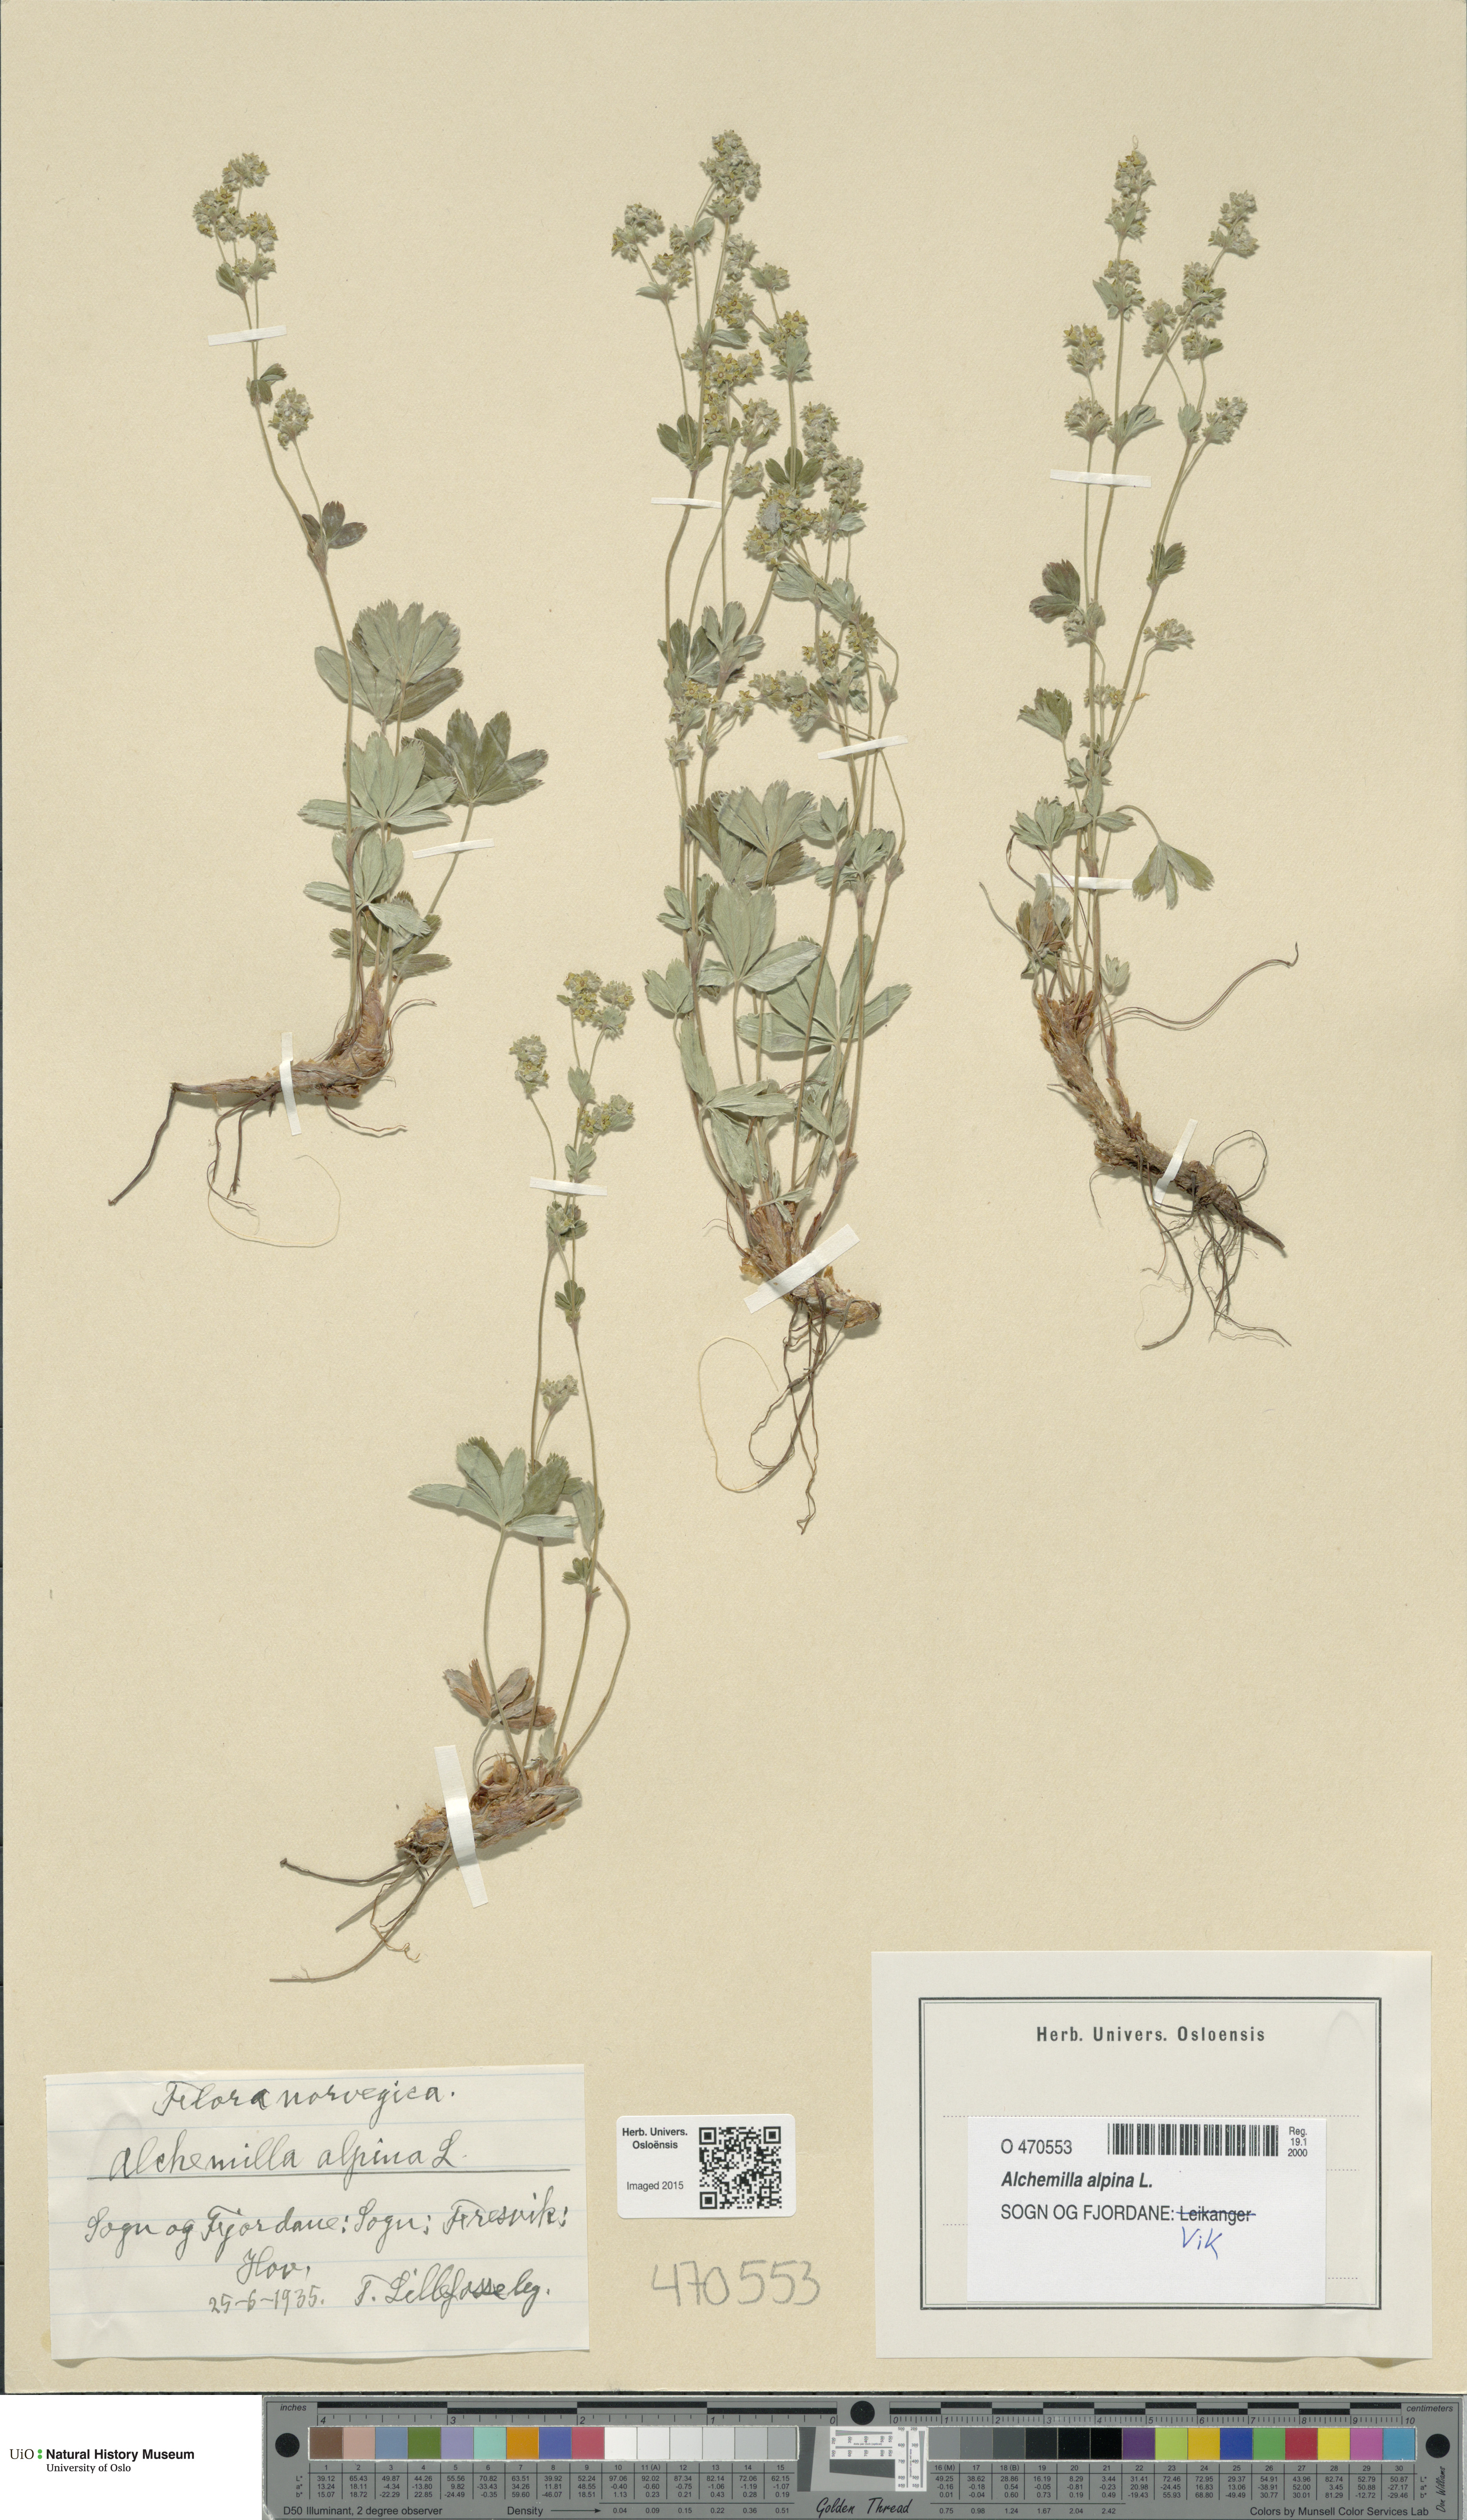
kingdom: Plantae
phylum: Tracheophyta
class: Magnoliopsida
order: Rosales
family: Rosaceae
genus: Alchemilla
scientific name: Alchemilla alpina
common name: Alpine lady's-mantle
